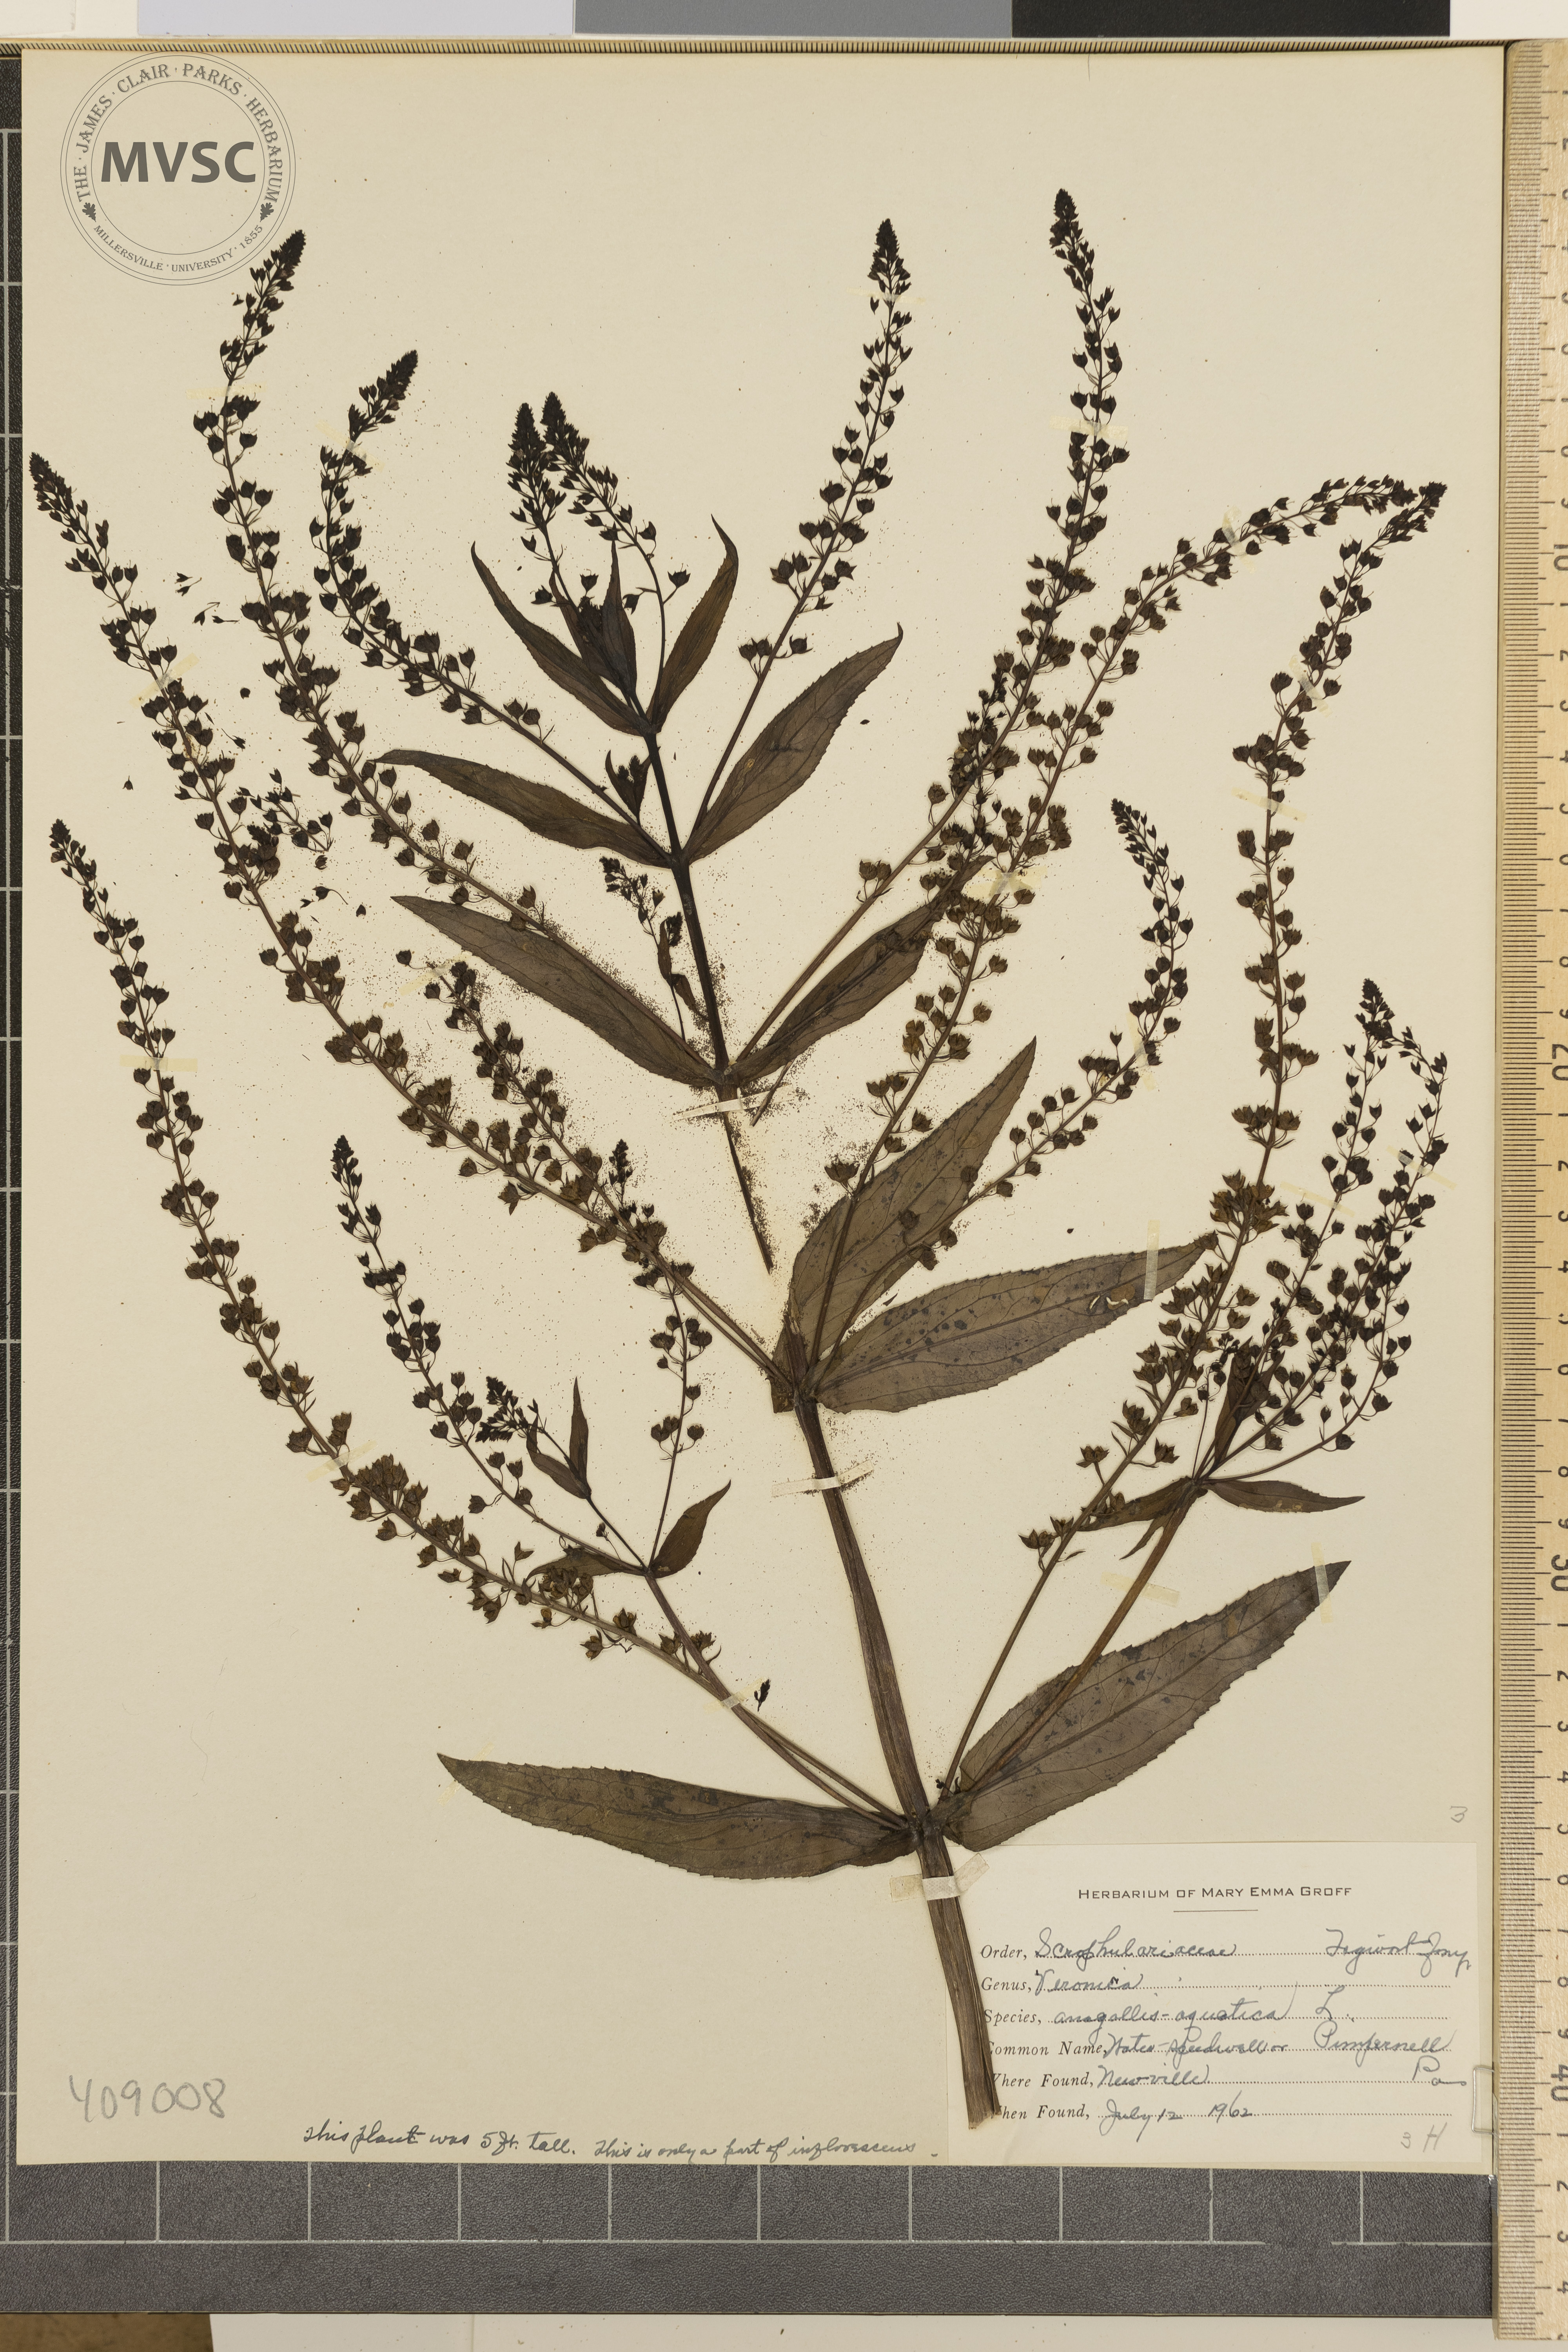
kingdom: Plantae
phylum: Tracheophyta
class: Magnoliopsida
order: Lamiales
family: Plantaginaceae
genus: Veronica
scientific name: Veronica anagallis-aquatica
